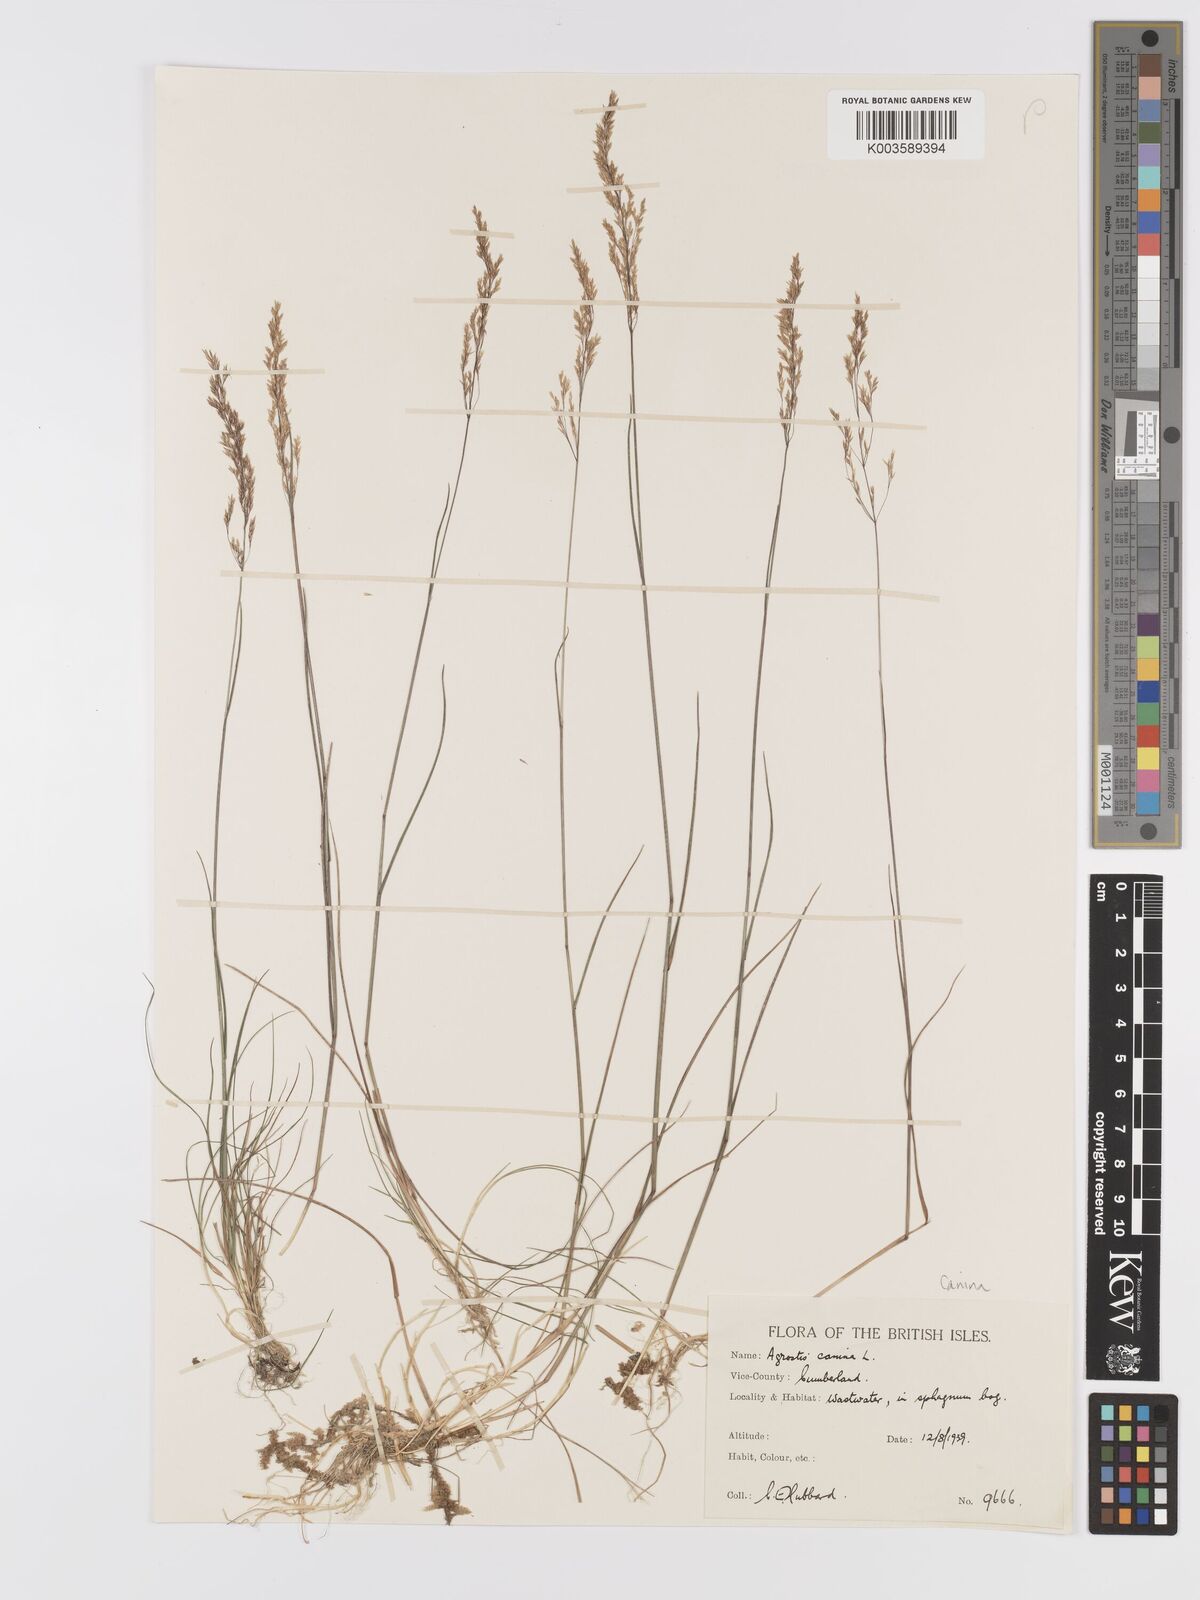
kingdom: Plantae
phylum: Tracheophyta
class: Liliopsida
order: Poales
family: Poaceae
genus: Agrostis
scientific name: Agrostis canina
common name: Velvet bent
